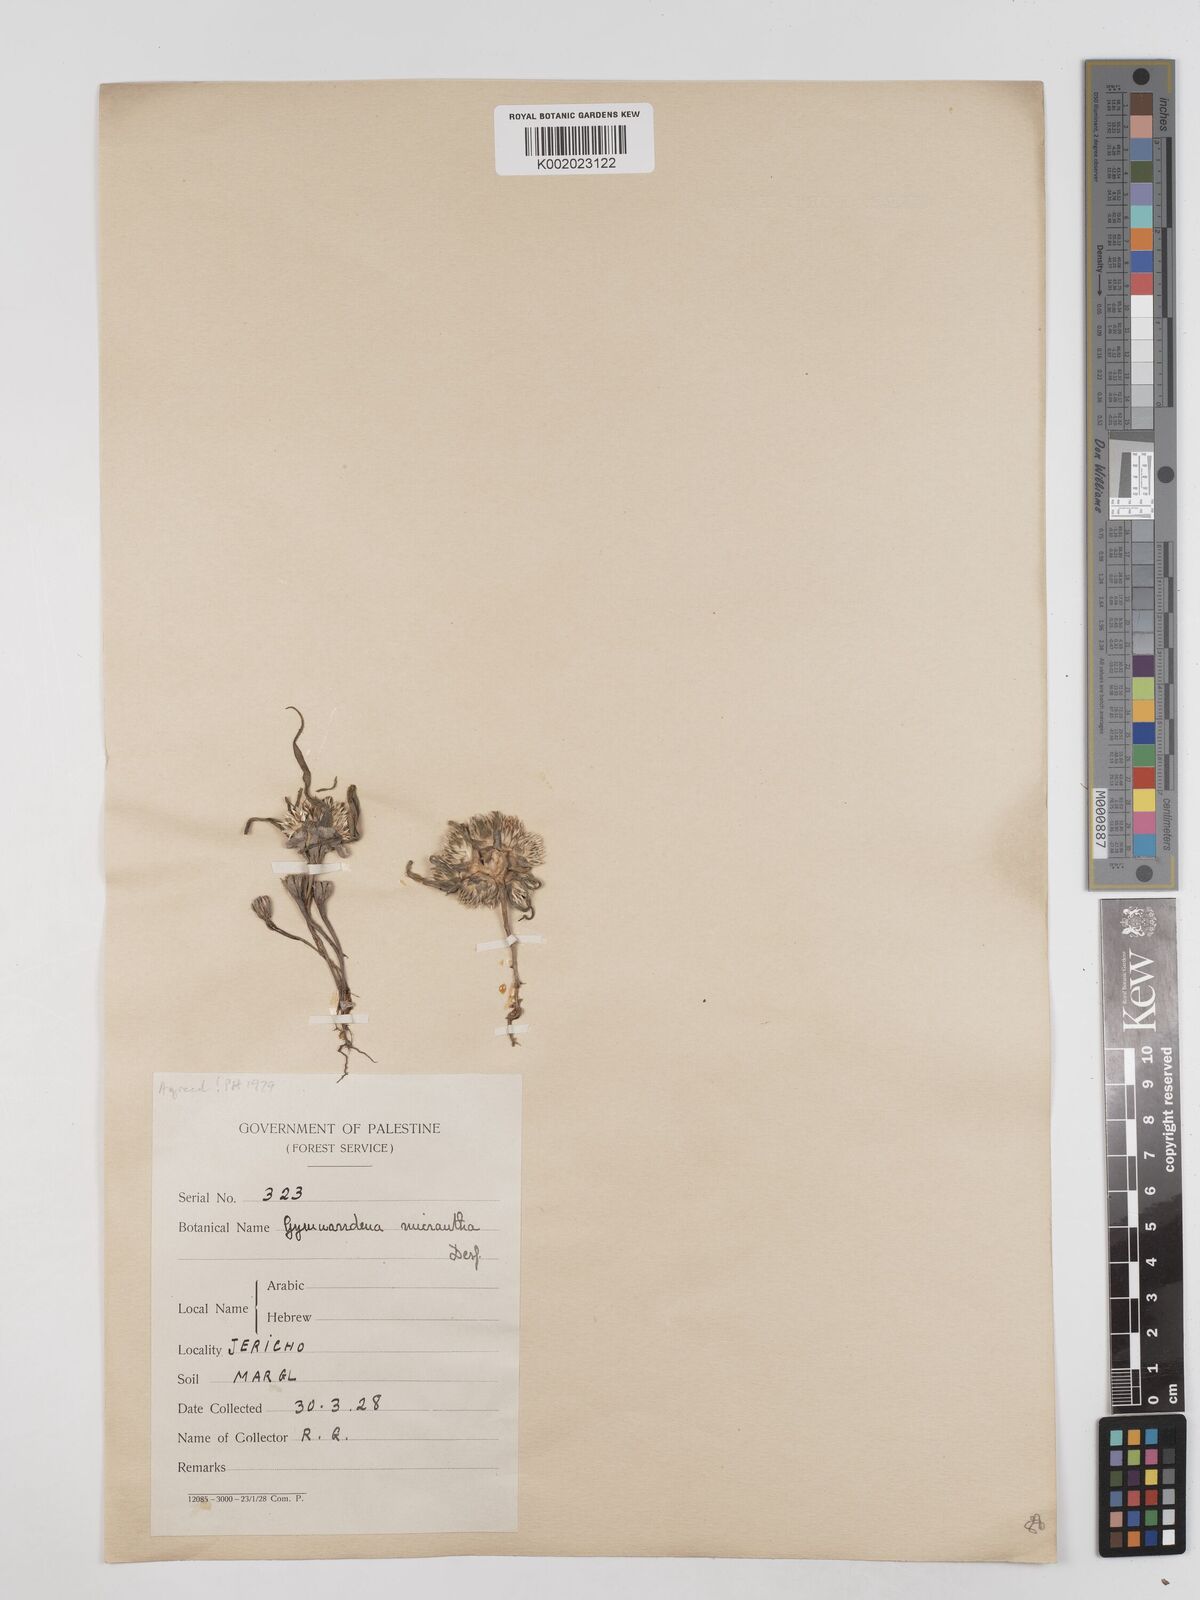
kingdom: Plantae
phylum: Tracheophyta
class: Magnoliopsida
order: Asterales
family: Asteraceae
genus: Gymnarrhena
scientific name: Gymnarrhena micrantha
